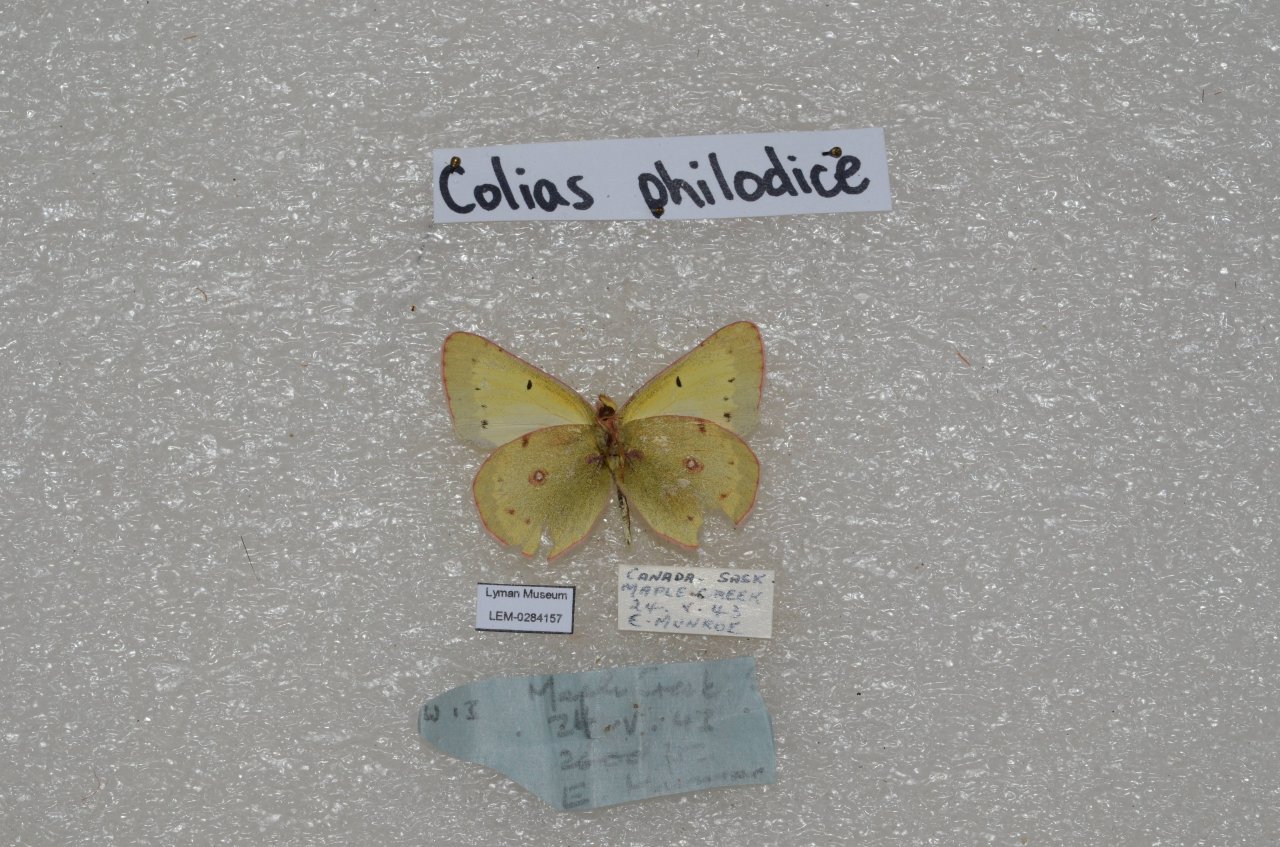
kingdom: Animalia
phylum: Arthropoda
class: Insecta
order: Lepidoptera
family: Pieridae
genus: Colias
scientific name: Colias philodice
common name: Clouded Sulphur
